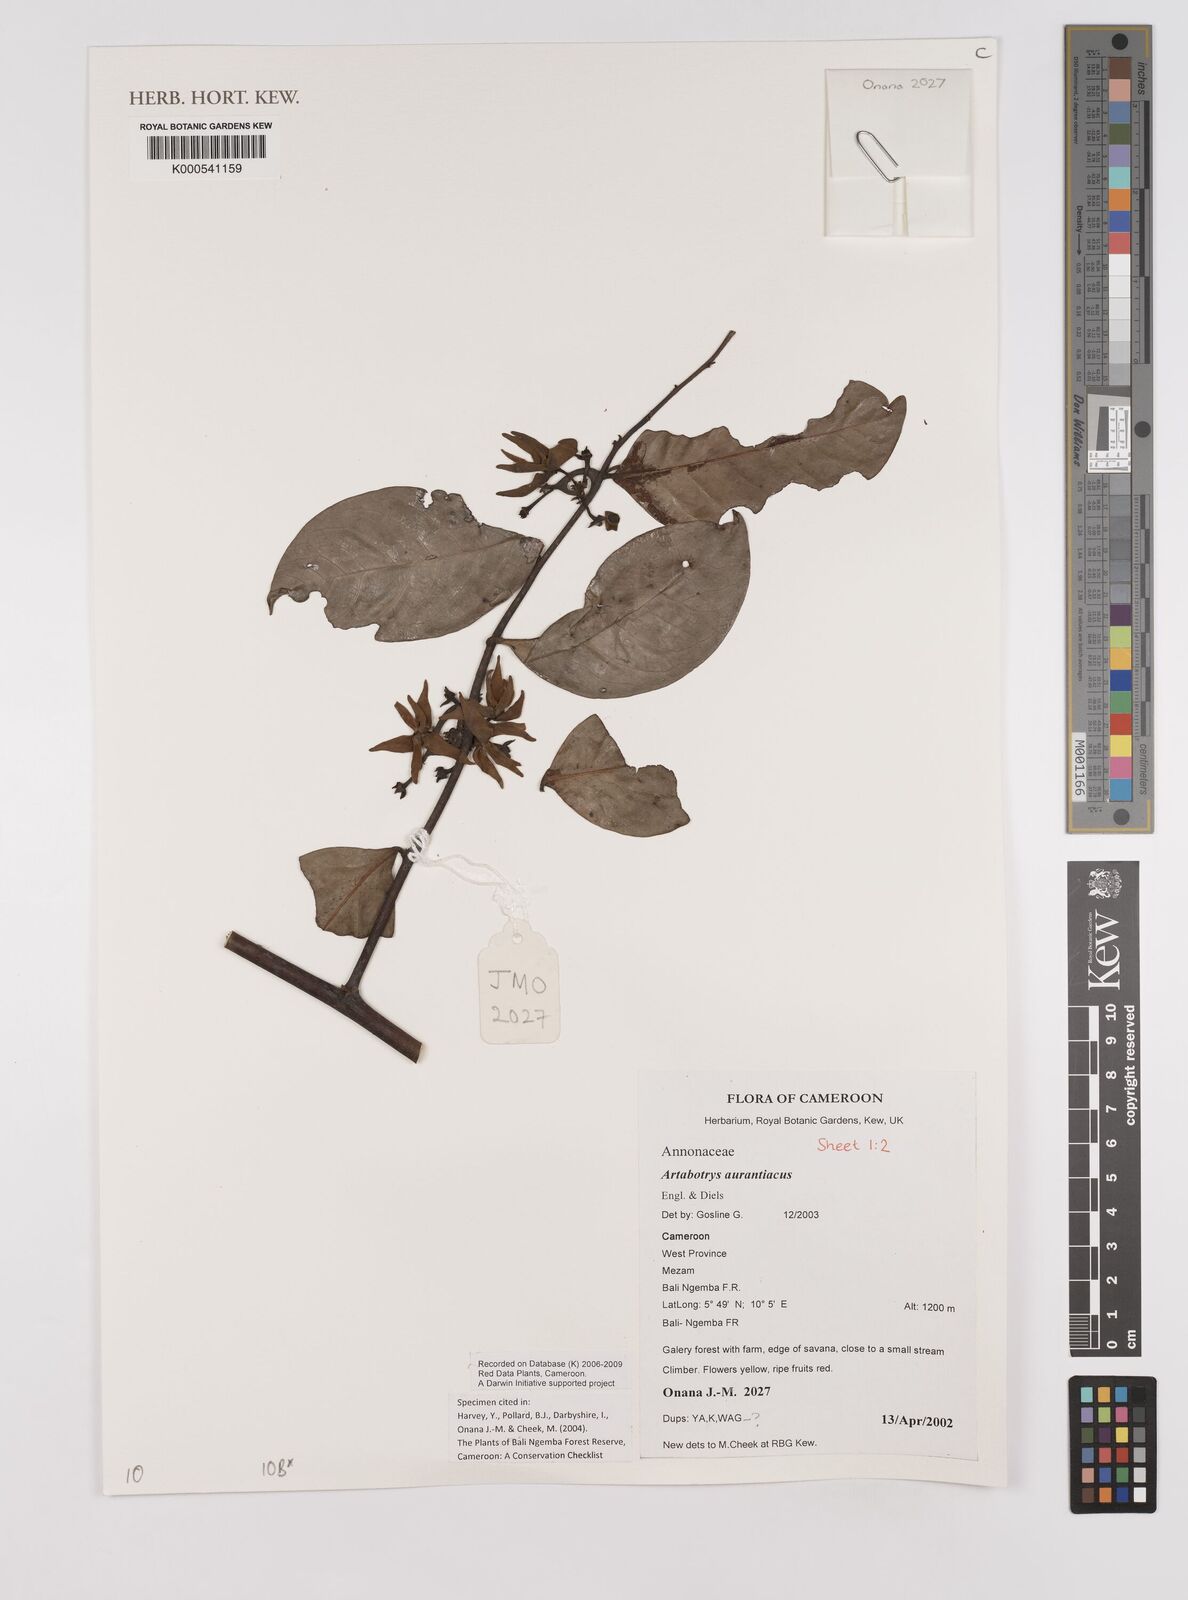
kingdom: Plantae
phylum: Tracheophyta
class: Magnoliopsida
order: Magnoliales
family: Annonaceae
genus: Artabotrys
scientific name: Artabotrys aurantiacus
